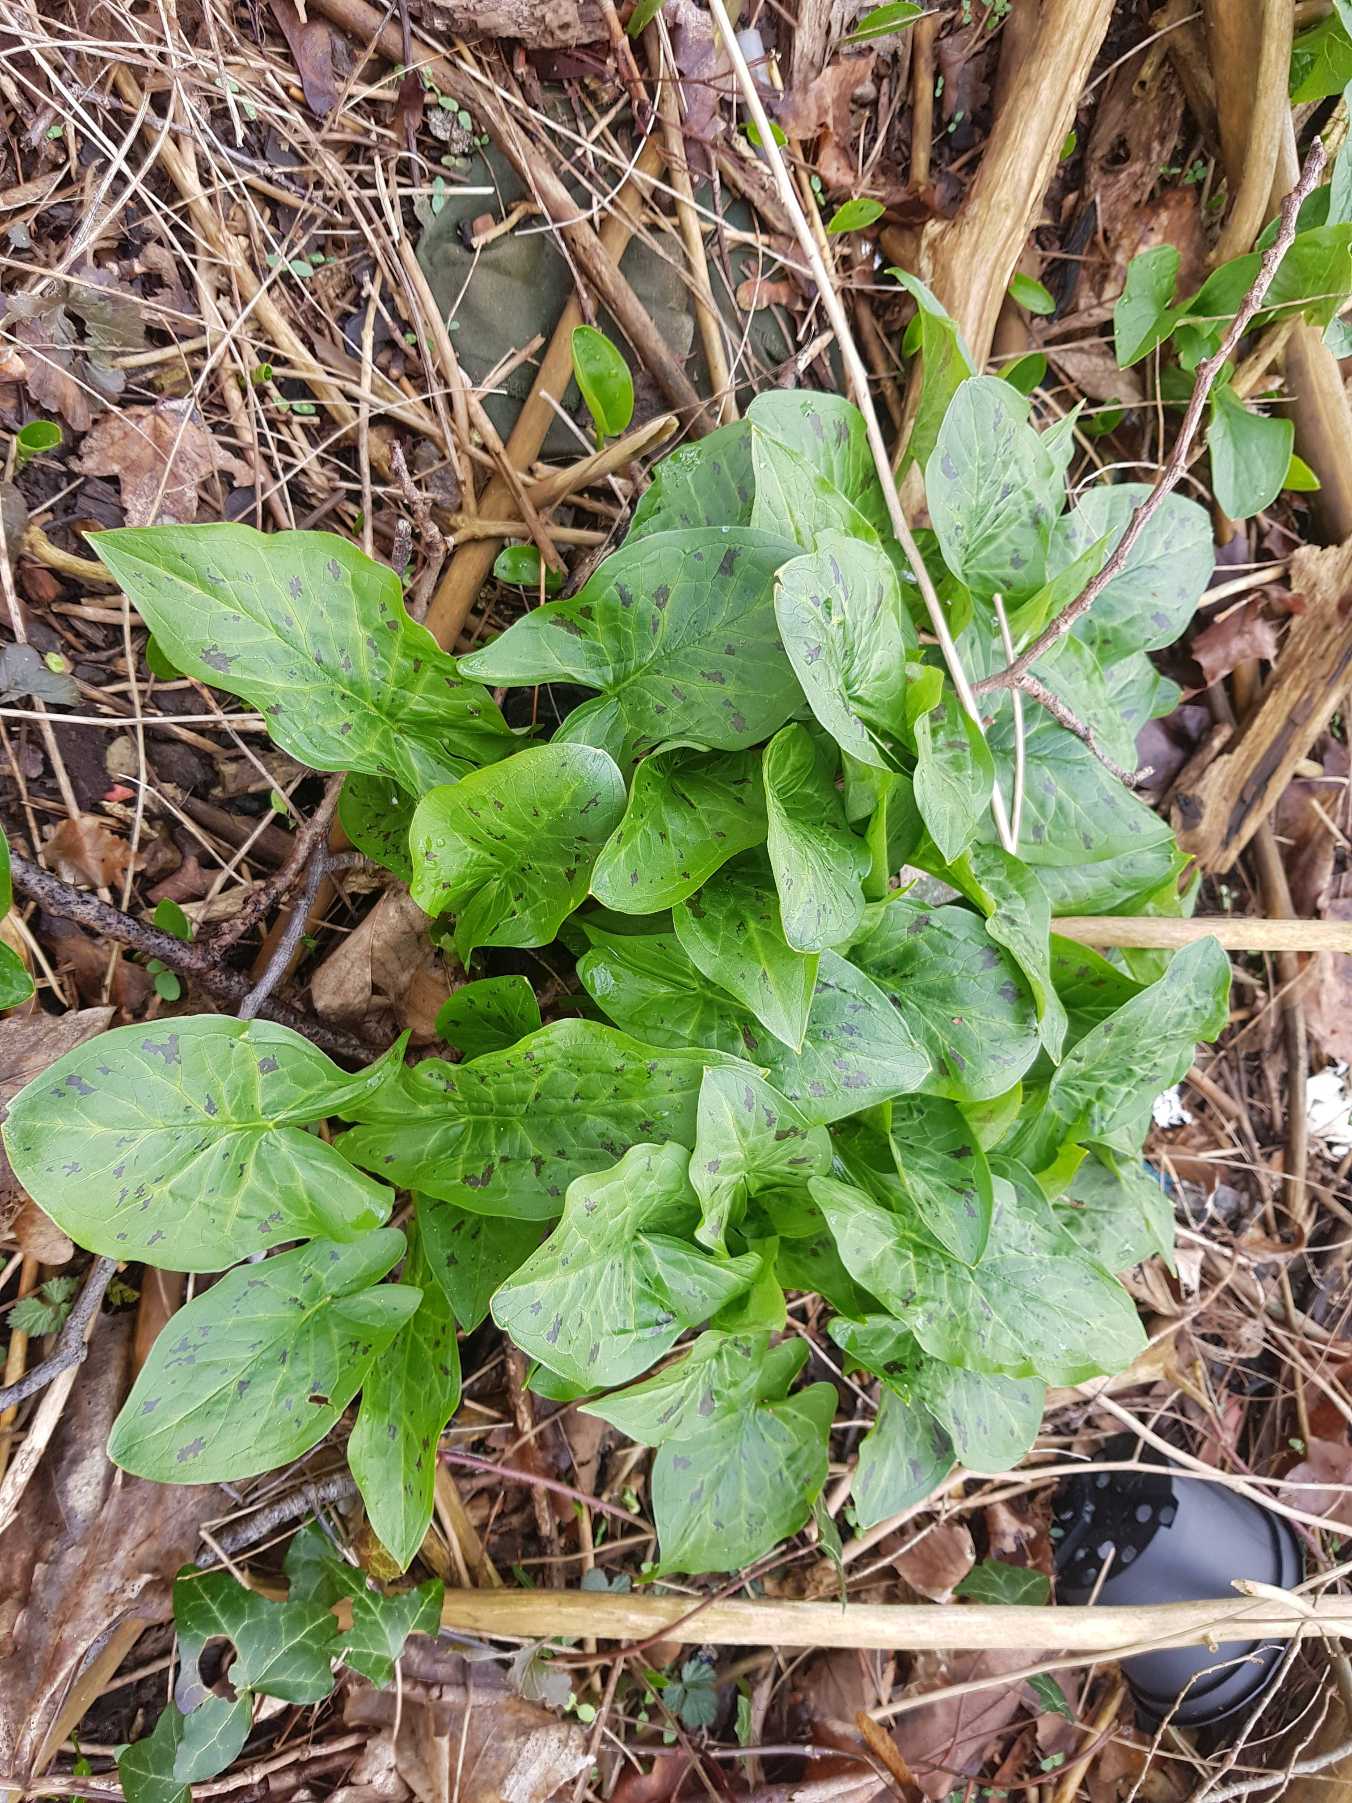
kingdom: Plantae
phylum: Tracheophyta
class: Liliopsida
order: Alismatales
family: Araceae
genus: Arum
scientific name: Arum maculatum
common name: Plettet arum
